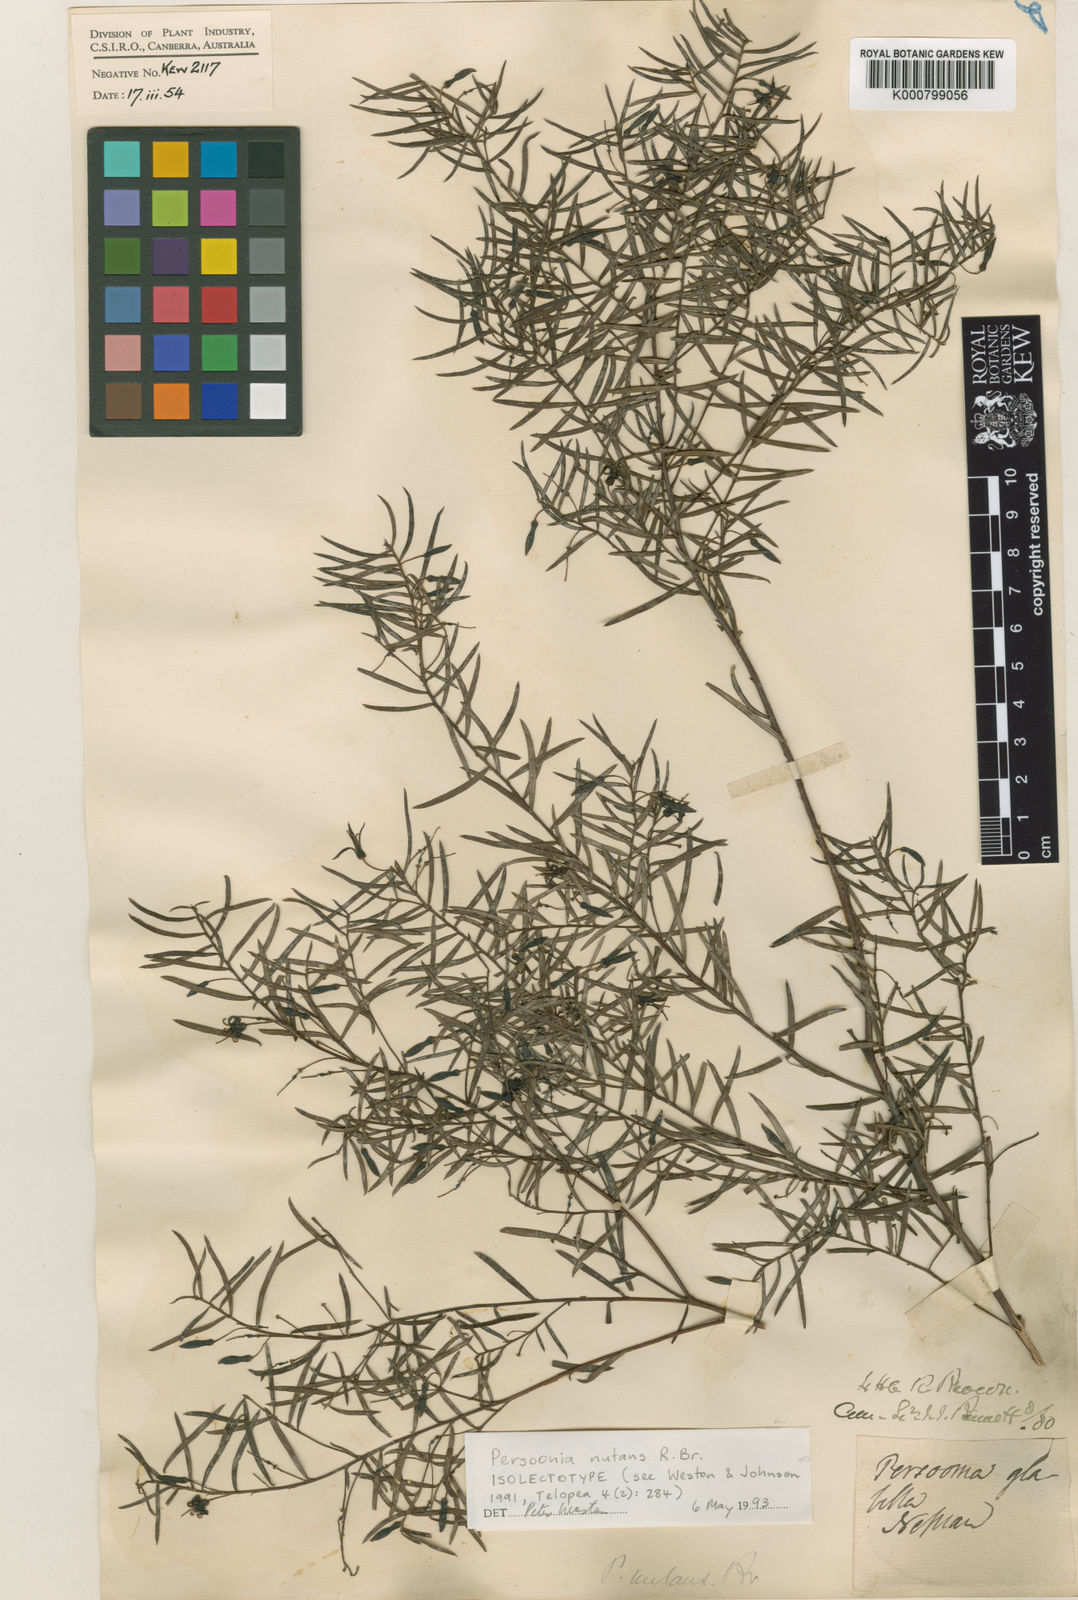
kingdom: Plantae
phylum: Tracheophyta
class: Magnoliopsida
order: Proteales
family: Proteaceae
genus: Persoonia
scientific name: Persoonia nutans
